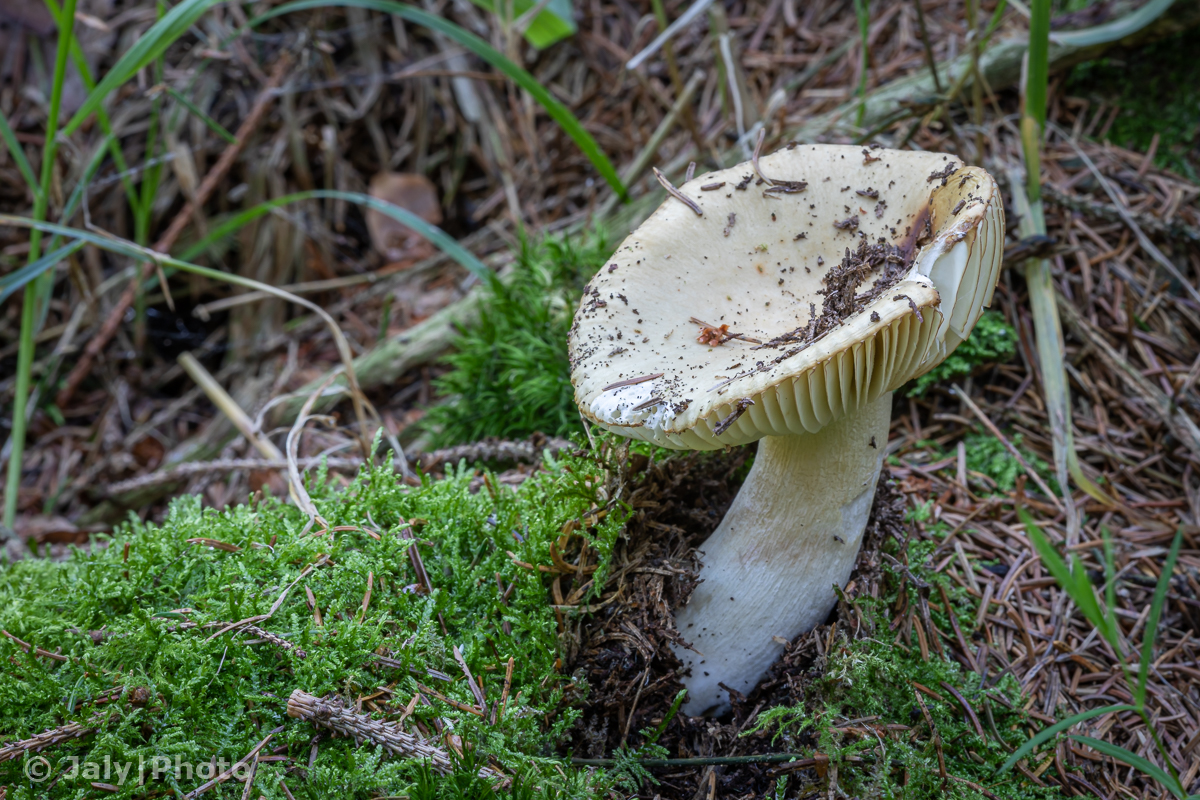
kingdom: Fungi
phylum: Basidiomycota
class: Agaricomycetes
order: Russulales
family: Russulaceae
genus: Russula
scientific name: Russula ochroleuca
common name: okkergul skørhat
